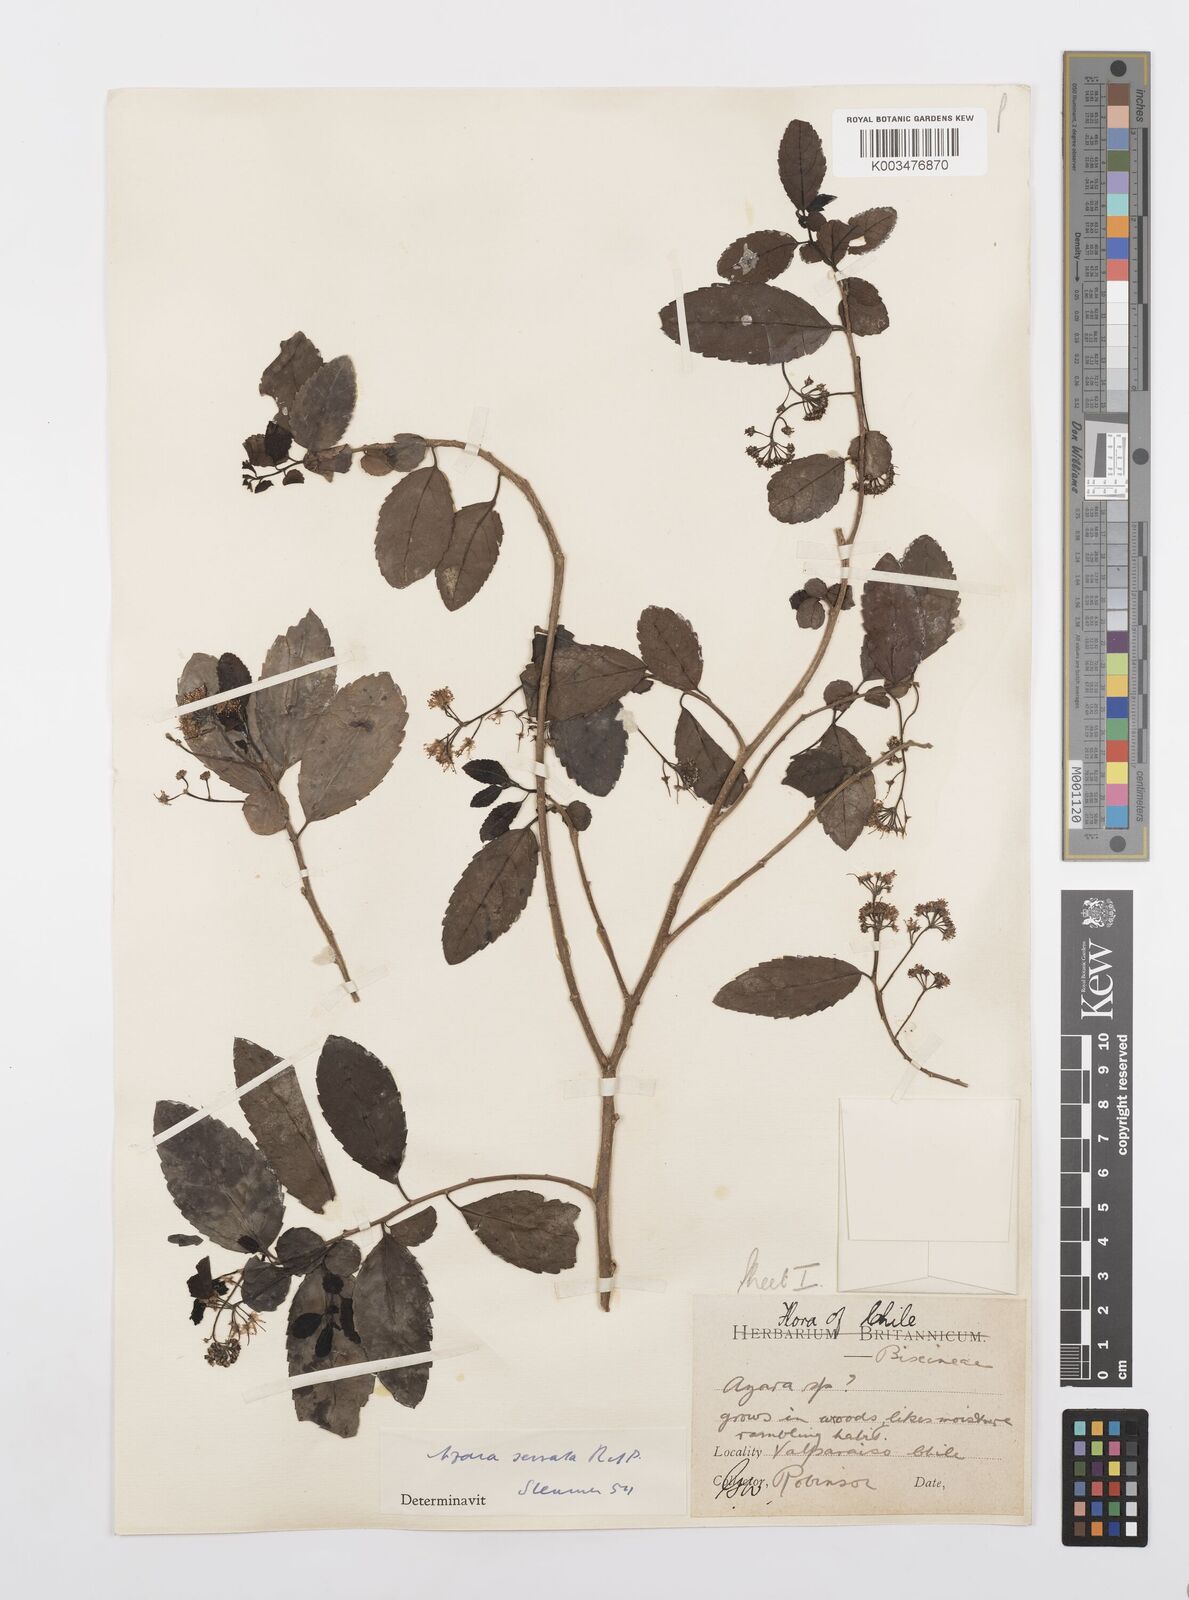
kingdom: Plantae
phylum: Tracheophyta
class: Magnoliopsida
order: Malpighiales
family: Salicaceae
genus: Azara
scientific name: Azara serrata
